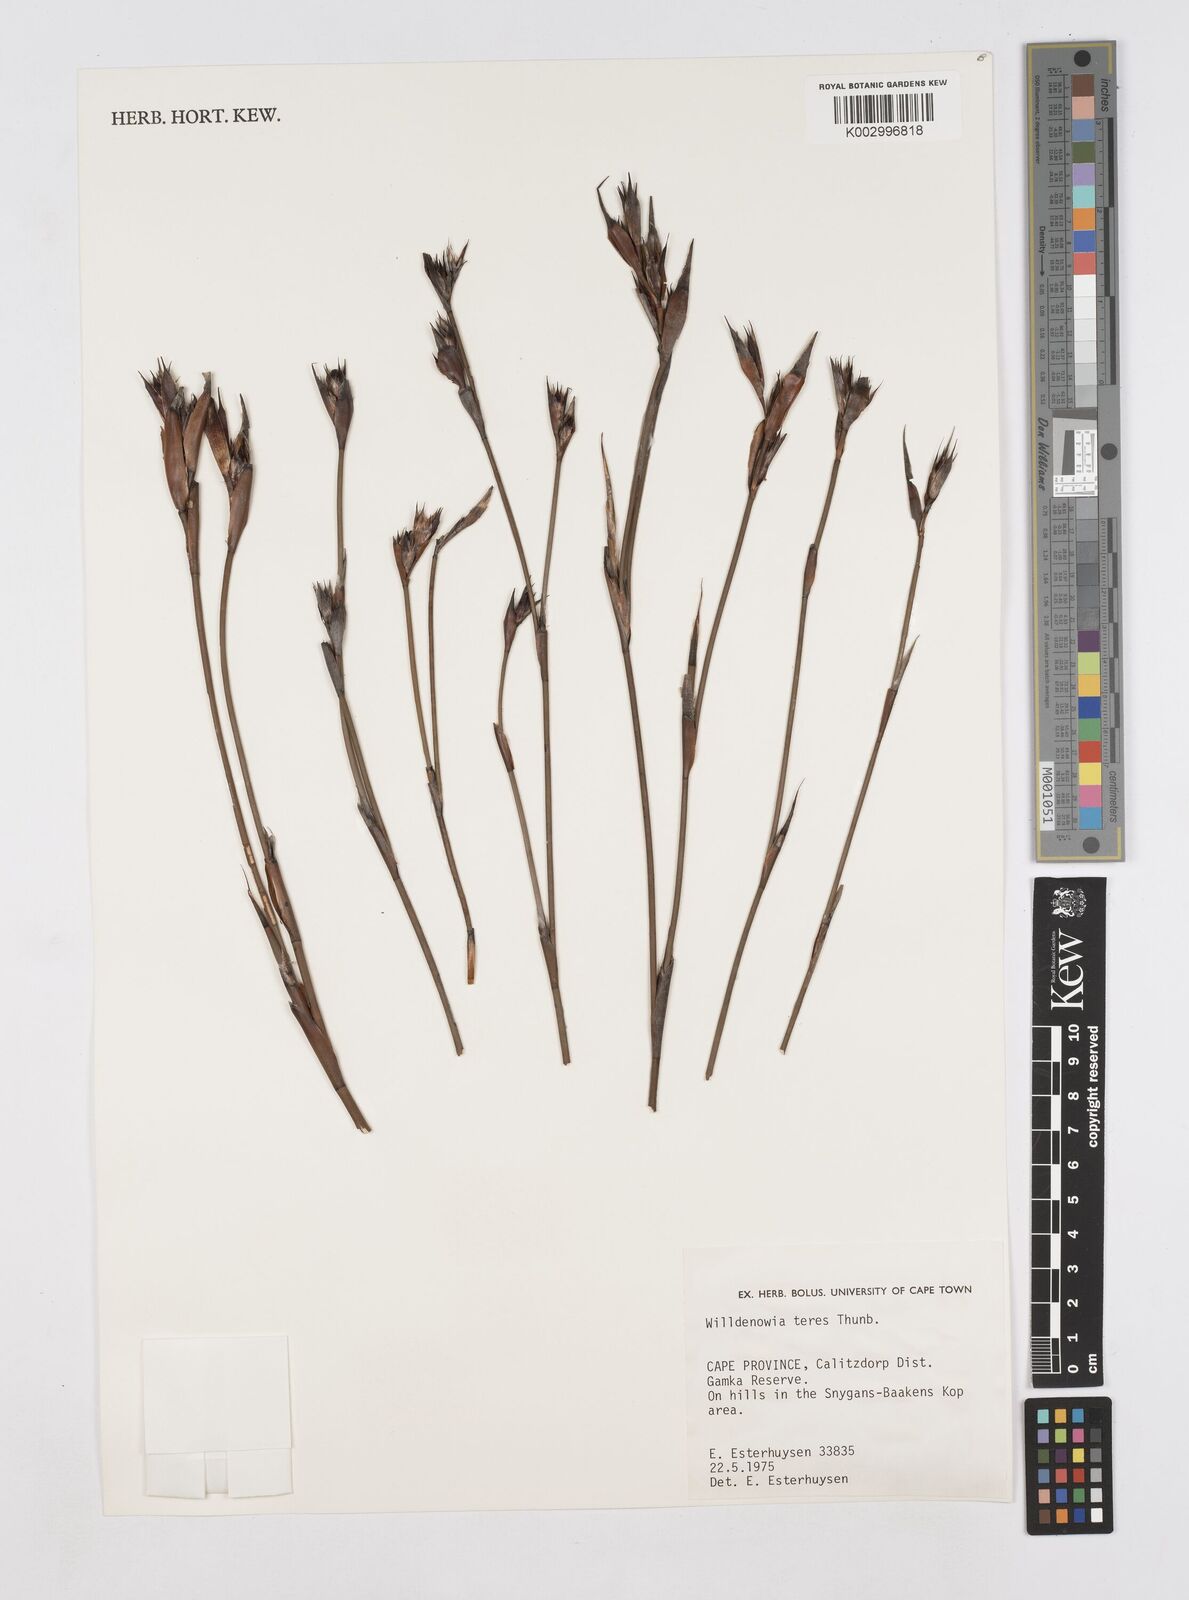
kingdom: Plantae
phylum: Tracheophyta
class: Liliopsida
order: Poales
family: Restionaceae
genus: Willdenowia
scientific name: Willdenowia teres
